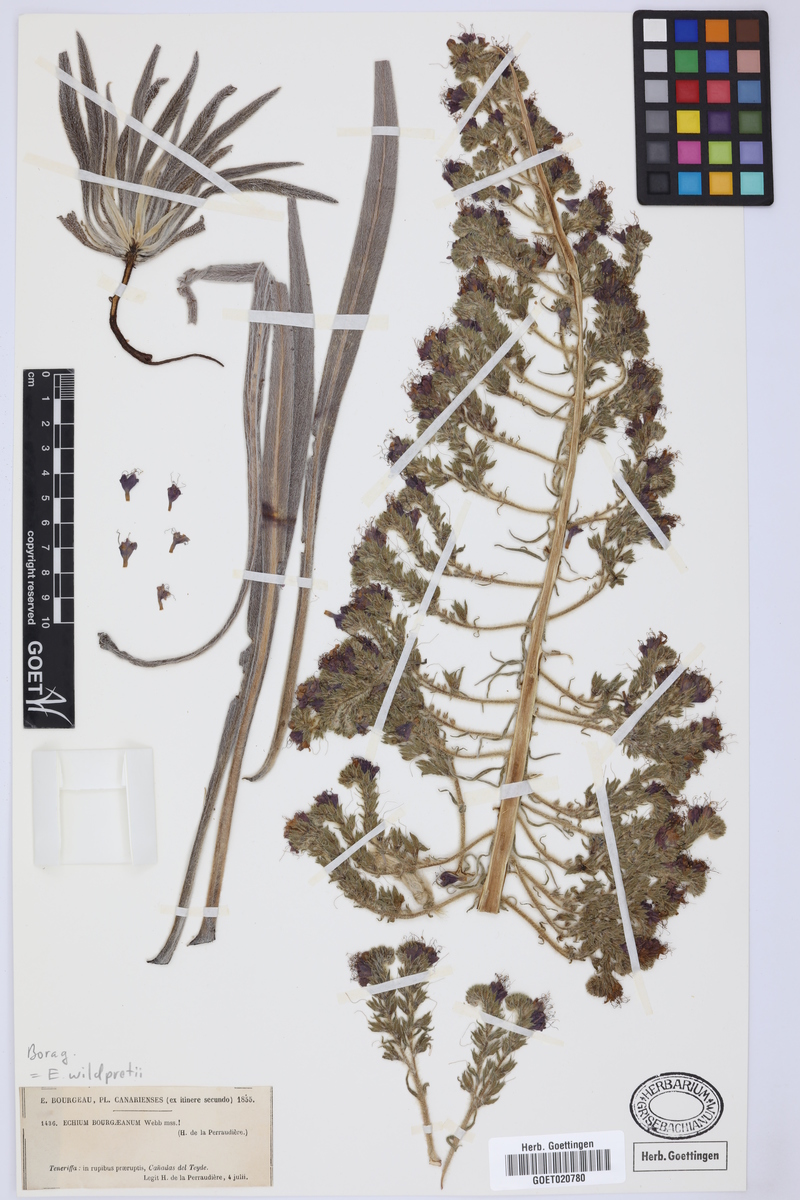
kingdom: Plantae
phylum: Tracheophyta
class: Magnoliopsida
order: Boraginales
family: Boraginaceae
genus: Echium
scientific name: Echium wildpretii
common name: Tower-of-jewels
